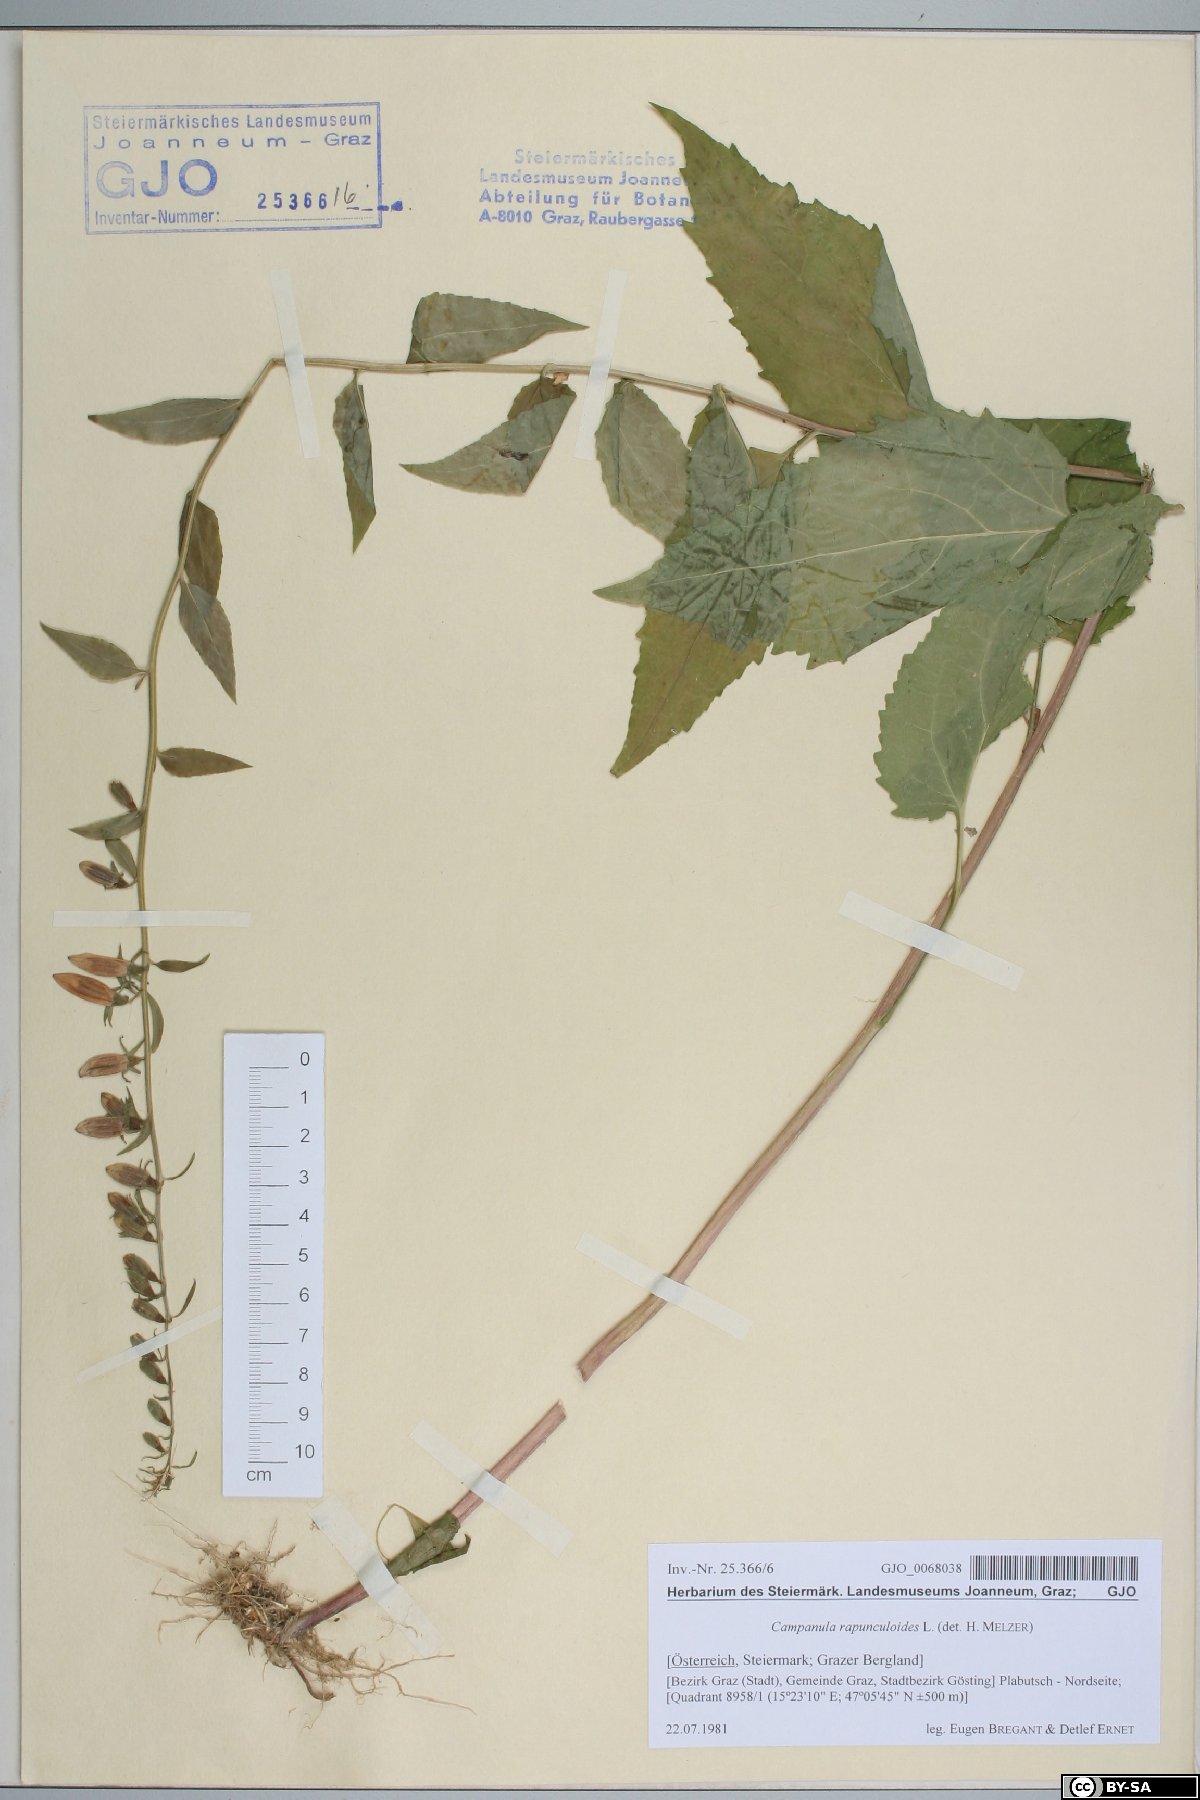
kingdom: Plantae
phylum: Tracheophyta
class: Magnoliopsida
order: Asterales
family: Campanulaceae
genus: Campanula
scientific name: Campanula rapunculoides
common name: Creeping bellflower
